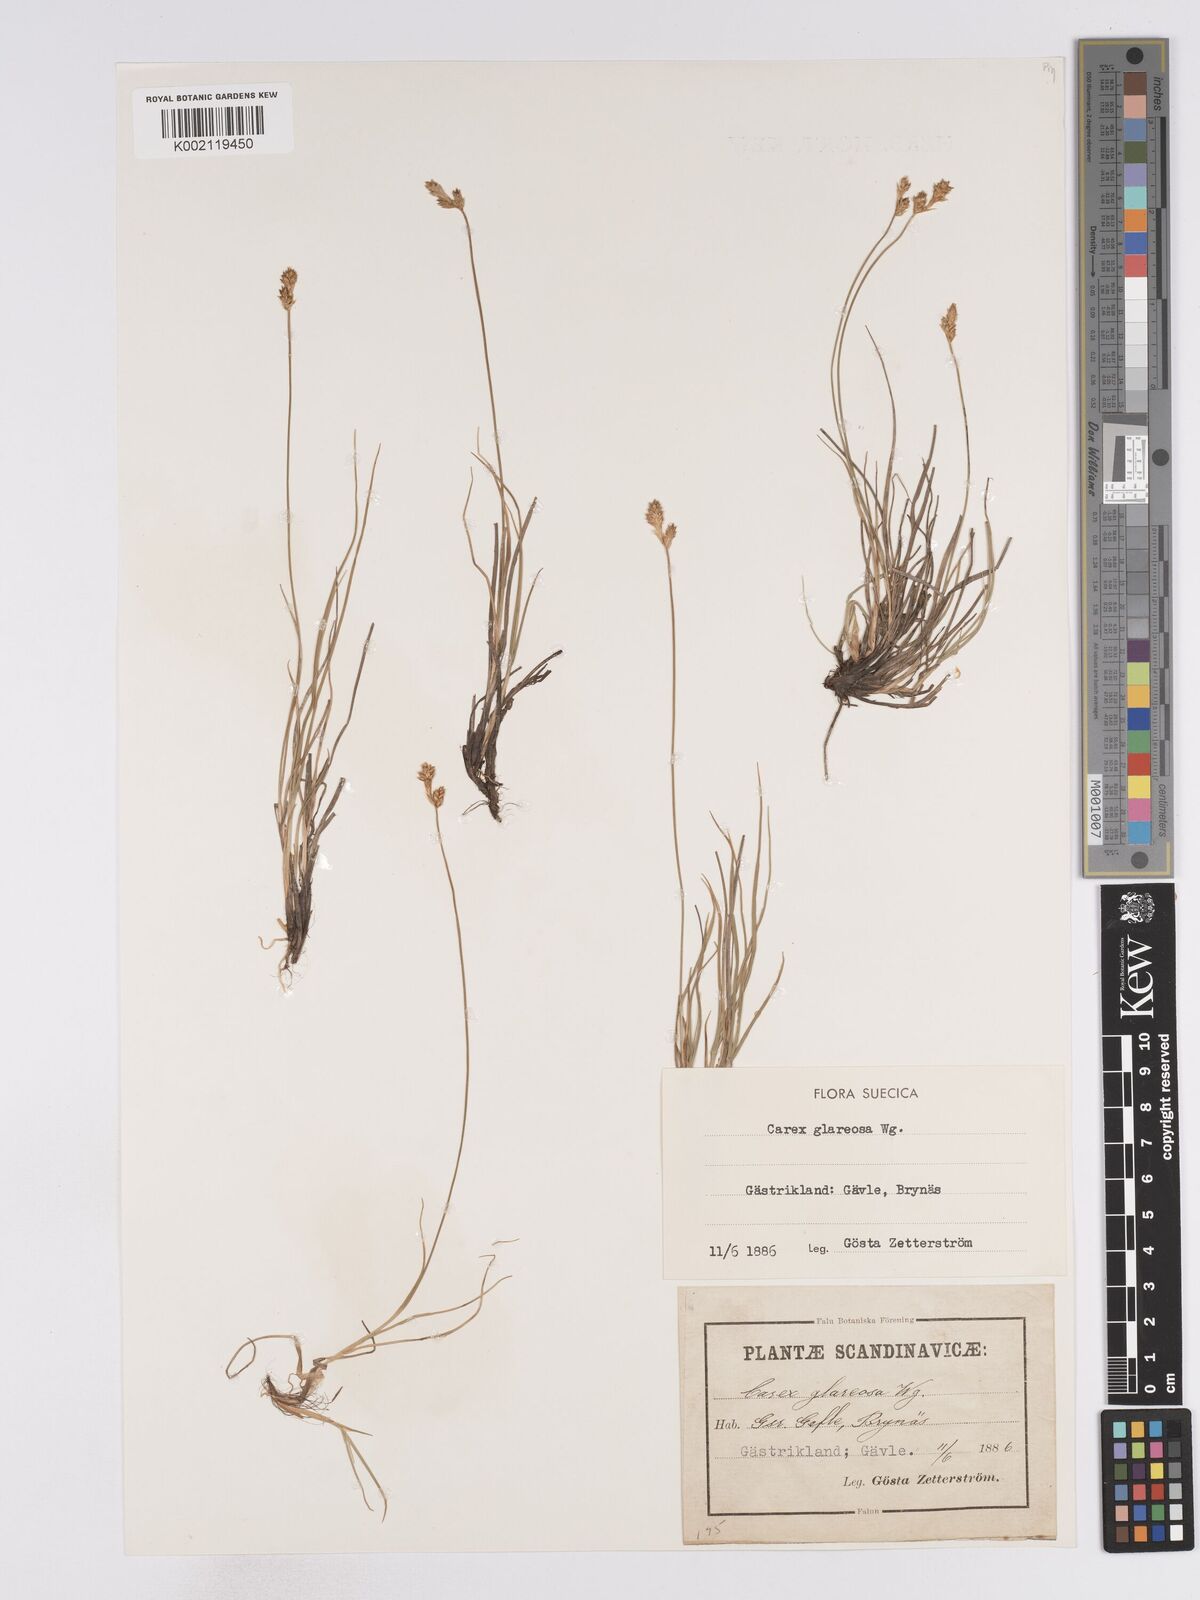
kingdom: Plantae
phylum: Tracheophyta
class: Liliopsida
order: Poales
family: Cyperaceae
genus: Carex
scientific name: Carex glareosa
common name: Clustered sedge
